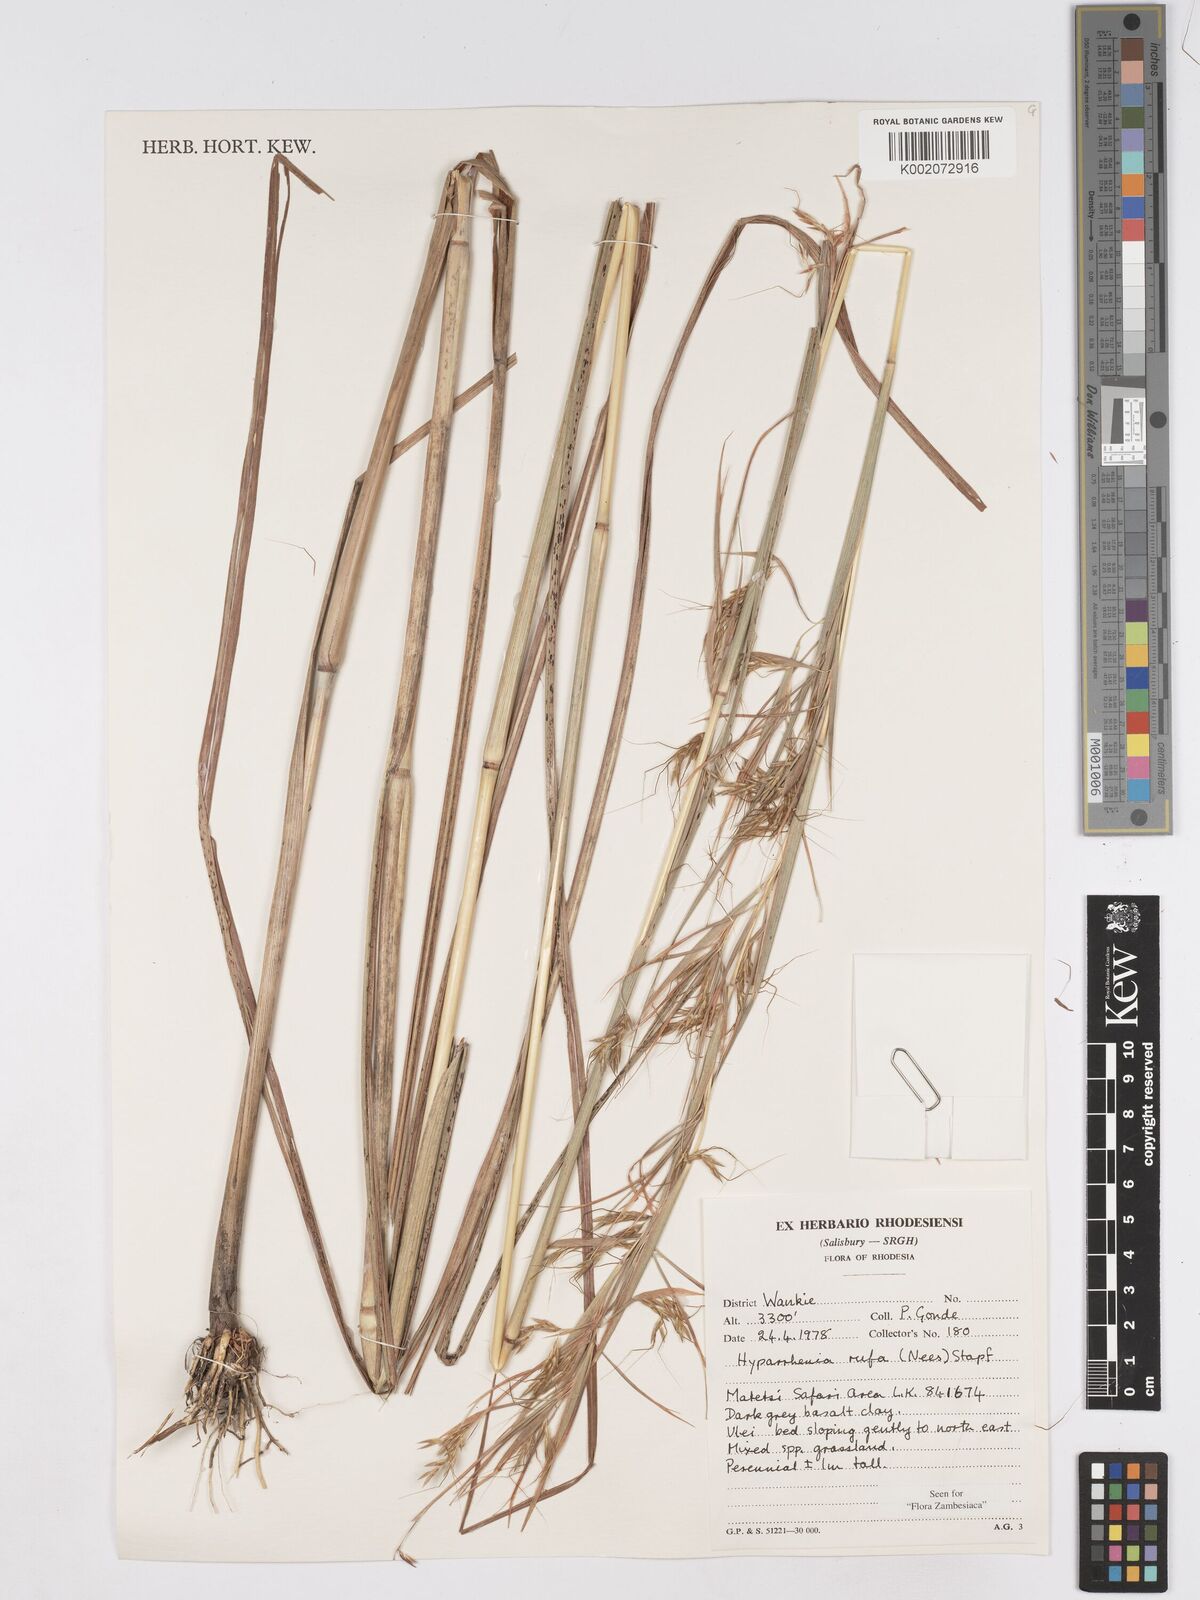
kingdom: Plantae
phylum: Tracheophyta
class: Liliopsida
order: Poales
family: Poaceae
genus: Hyparrhenia
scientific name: Hyparrhenia rufa
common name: Jaraguagrass
